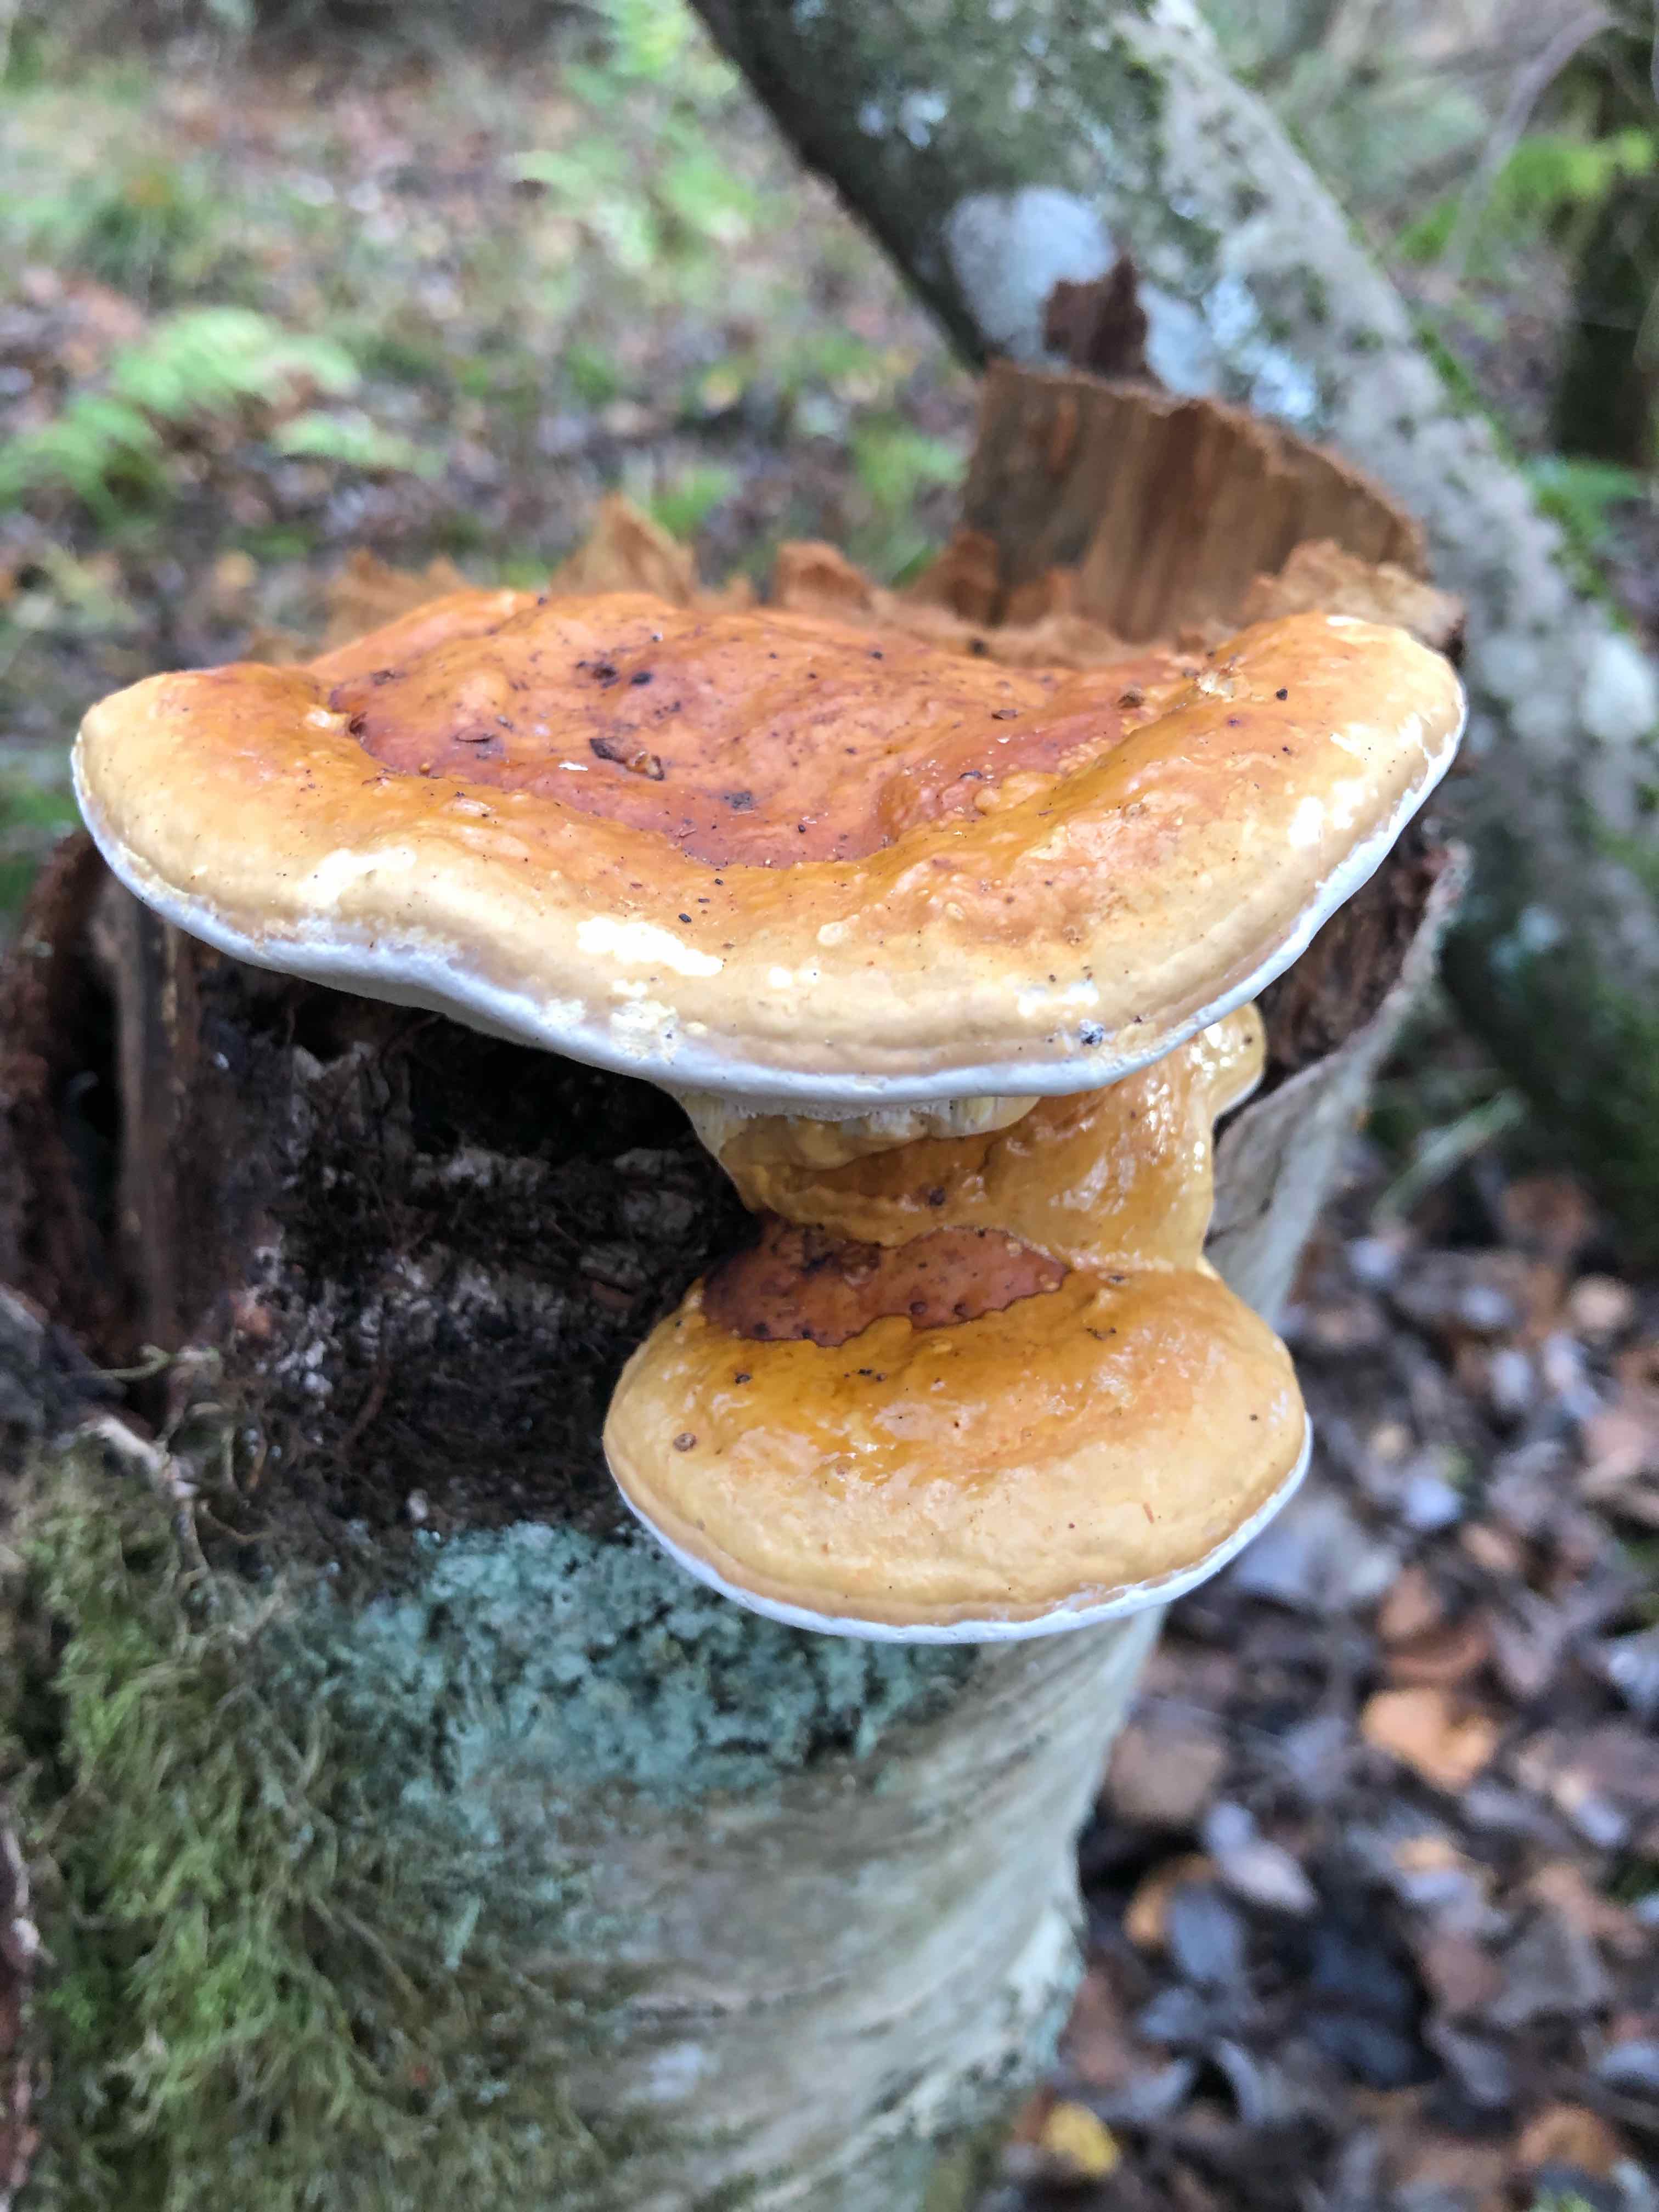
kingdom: Fungi
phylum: Basidiomycota
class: Agaricomycetes
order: Polyporales
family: Fomitopsidaceae
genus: Fomitopsis
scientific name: Fomitopsis pinicola
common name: randbæltet hovporesvamp
